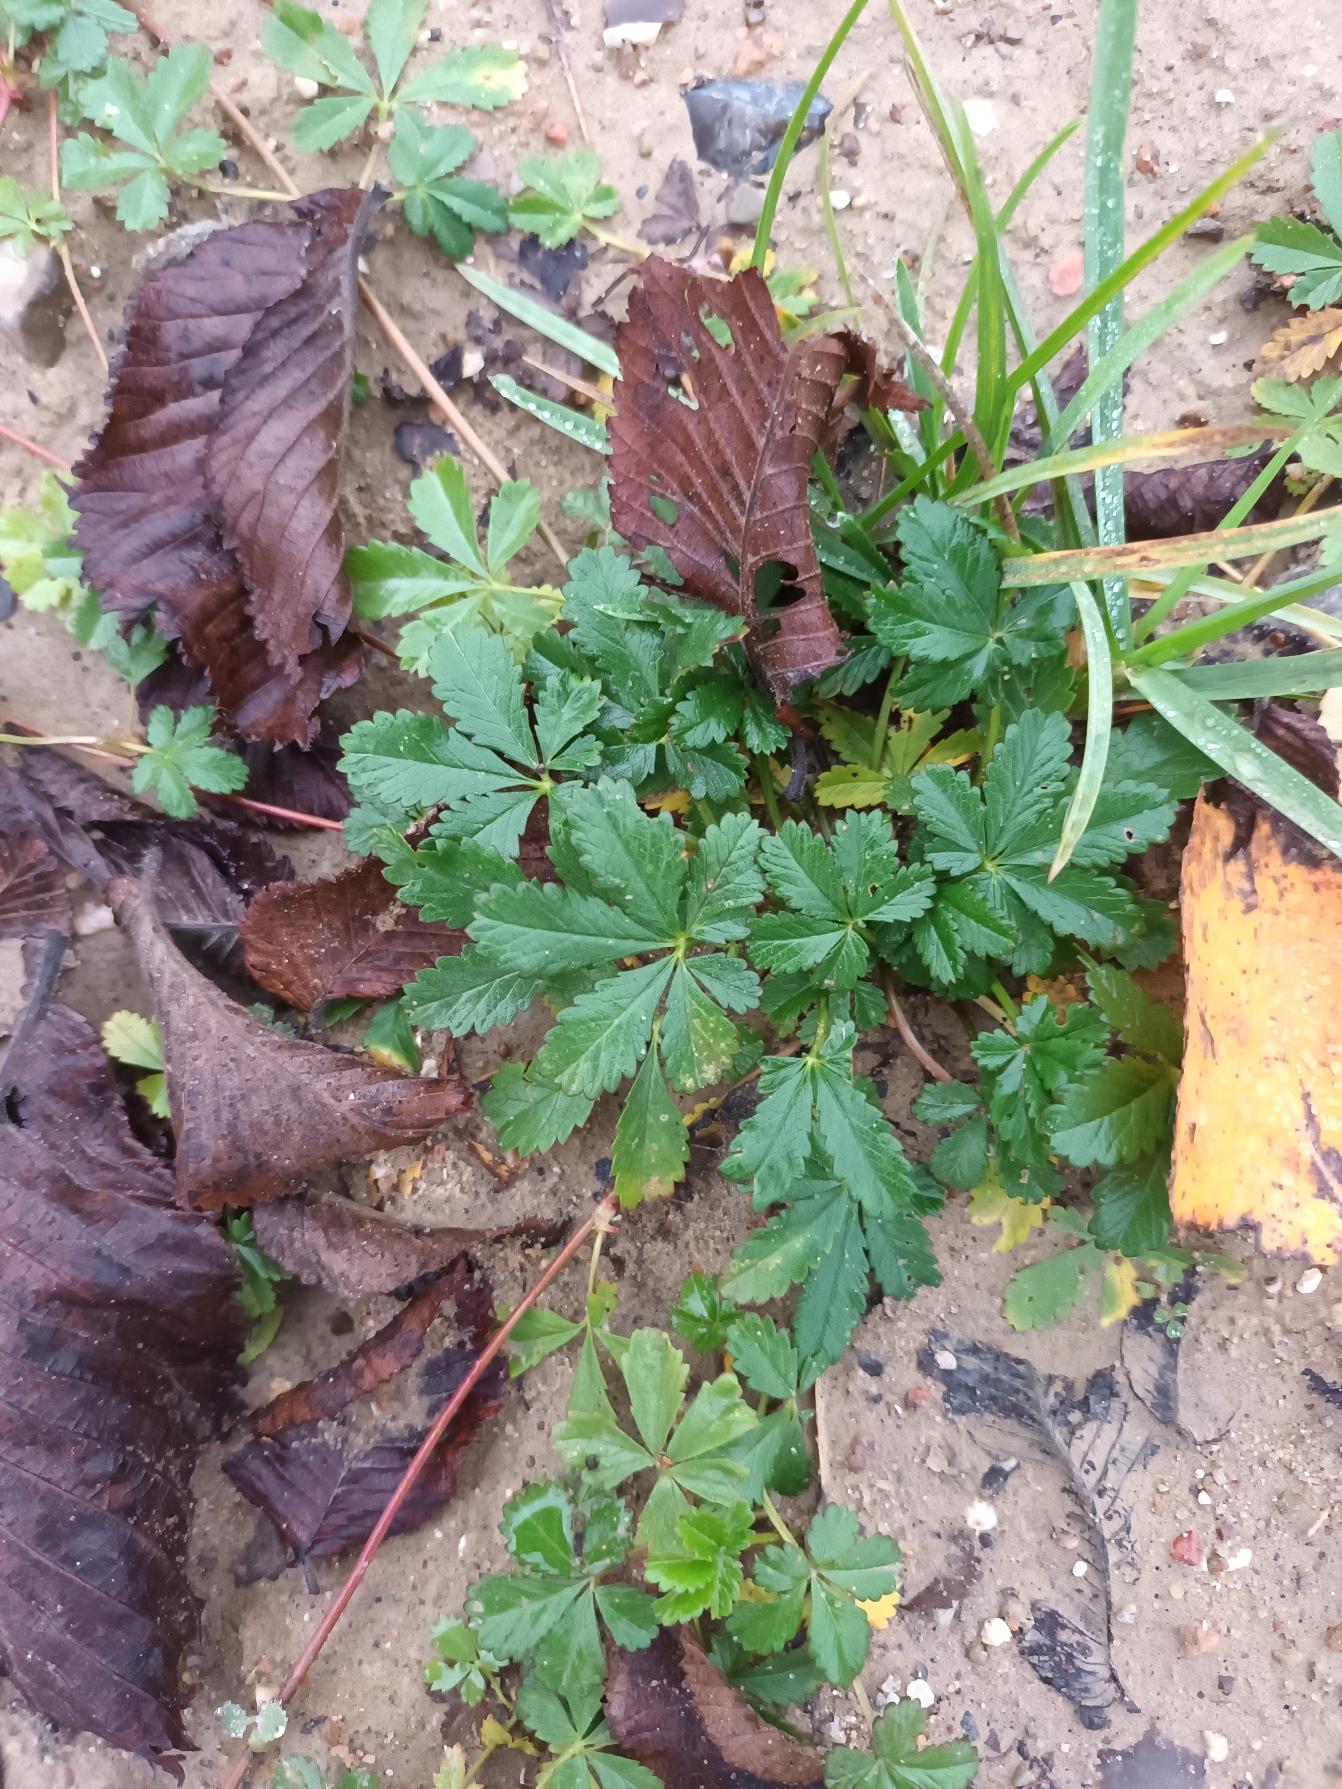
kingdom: Plantae
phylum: Tracheophyta
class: Magnoliopsida
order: Rosales
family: Rosaceae
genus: Potentilla
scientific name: Potentilla reptans
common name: Krybende potentil
